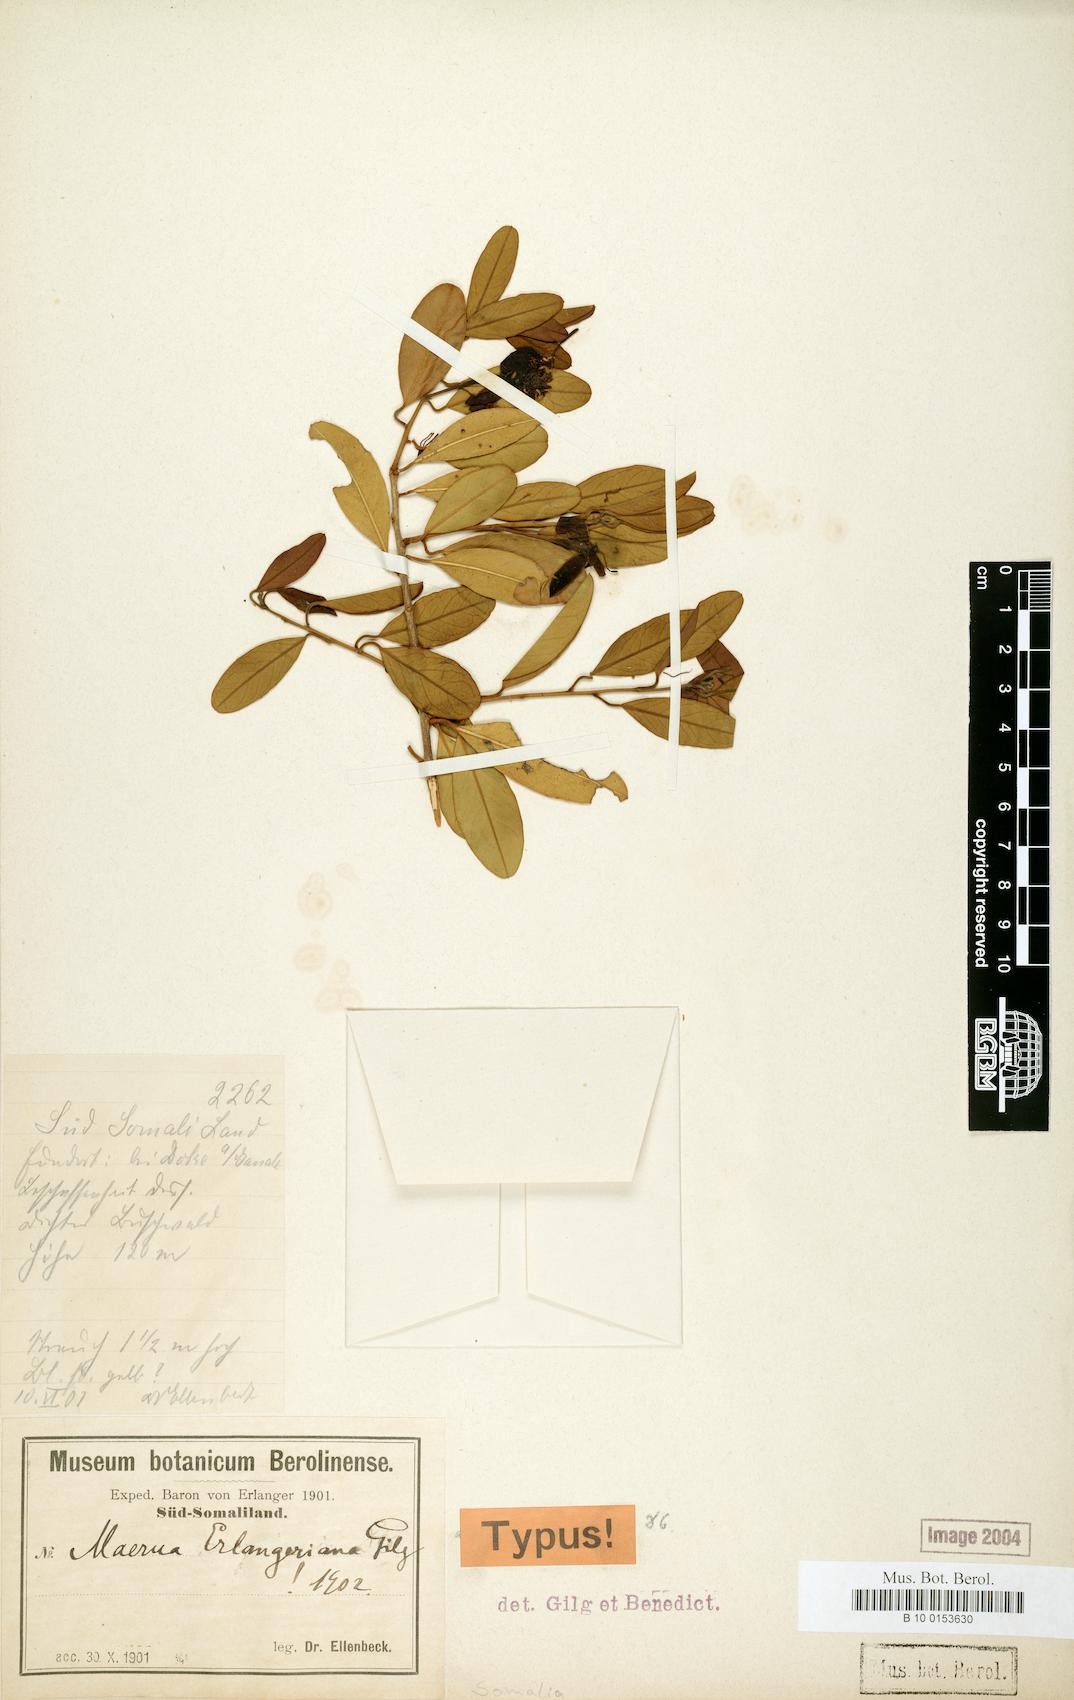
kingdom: Plantae
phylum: Tracheophyta
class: Magnoliopsida
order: Brassicales
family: Capparaceae
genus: Maerua
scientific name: Maerua erlangeriana
